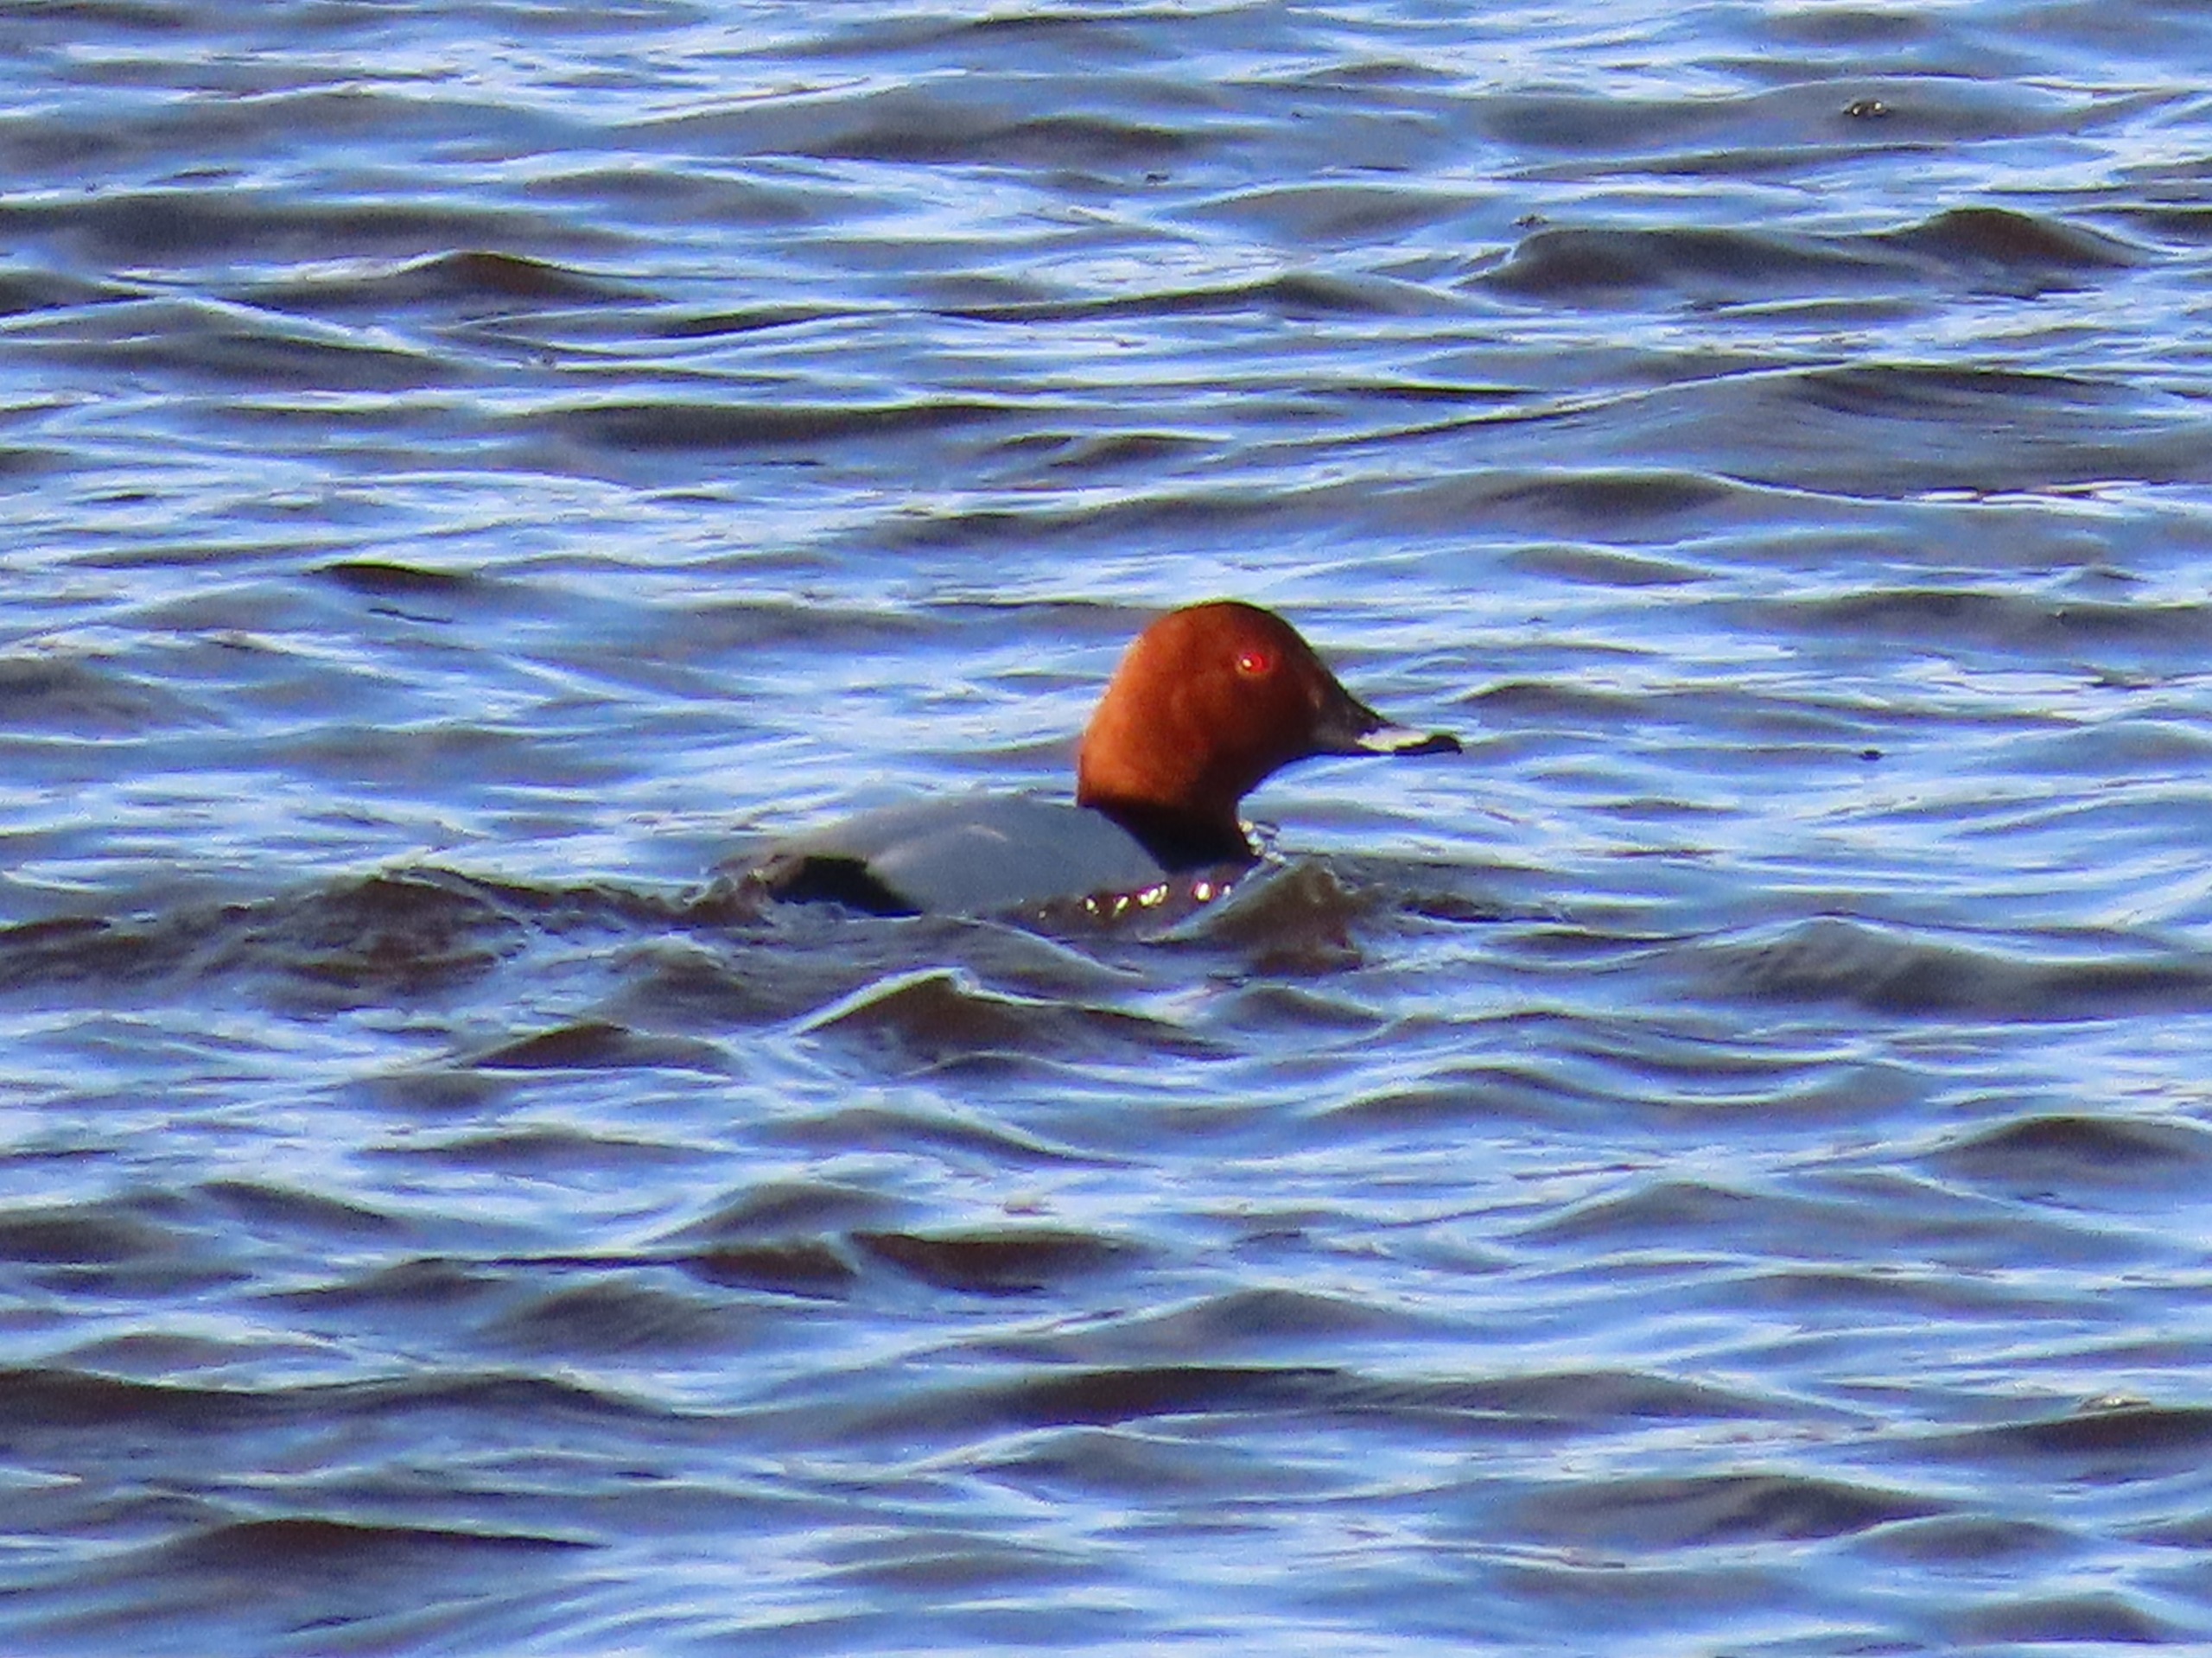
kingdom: Animalia
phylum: Chordata
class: Aves
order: Anseriformes
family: Anatidae
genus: Aythya
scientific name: Aythya ferina
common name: Taffeland
